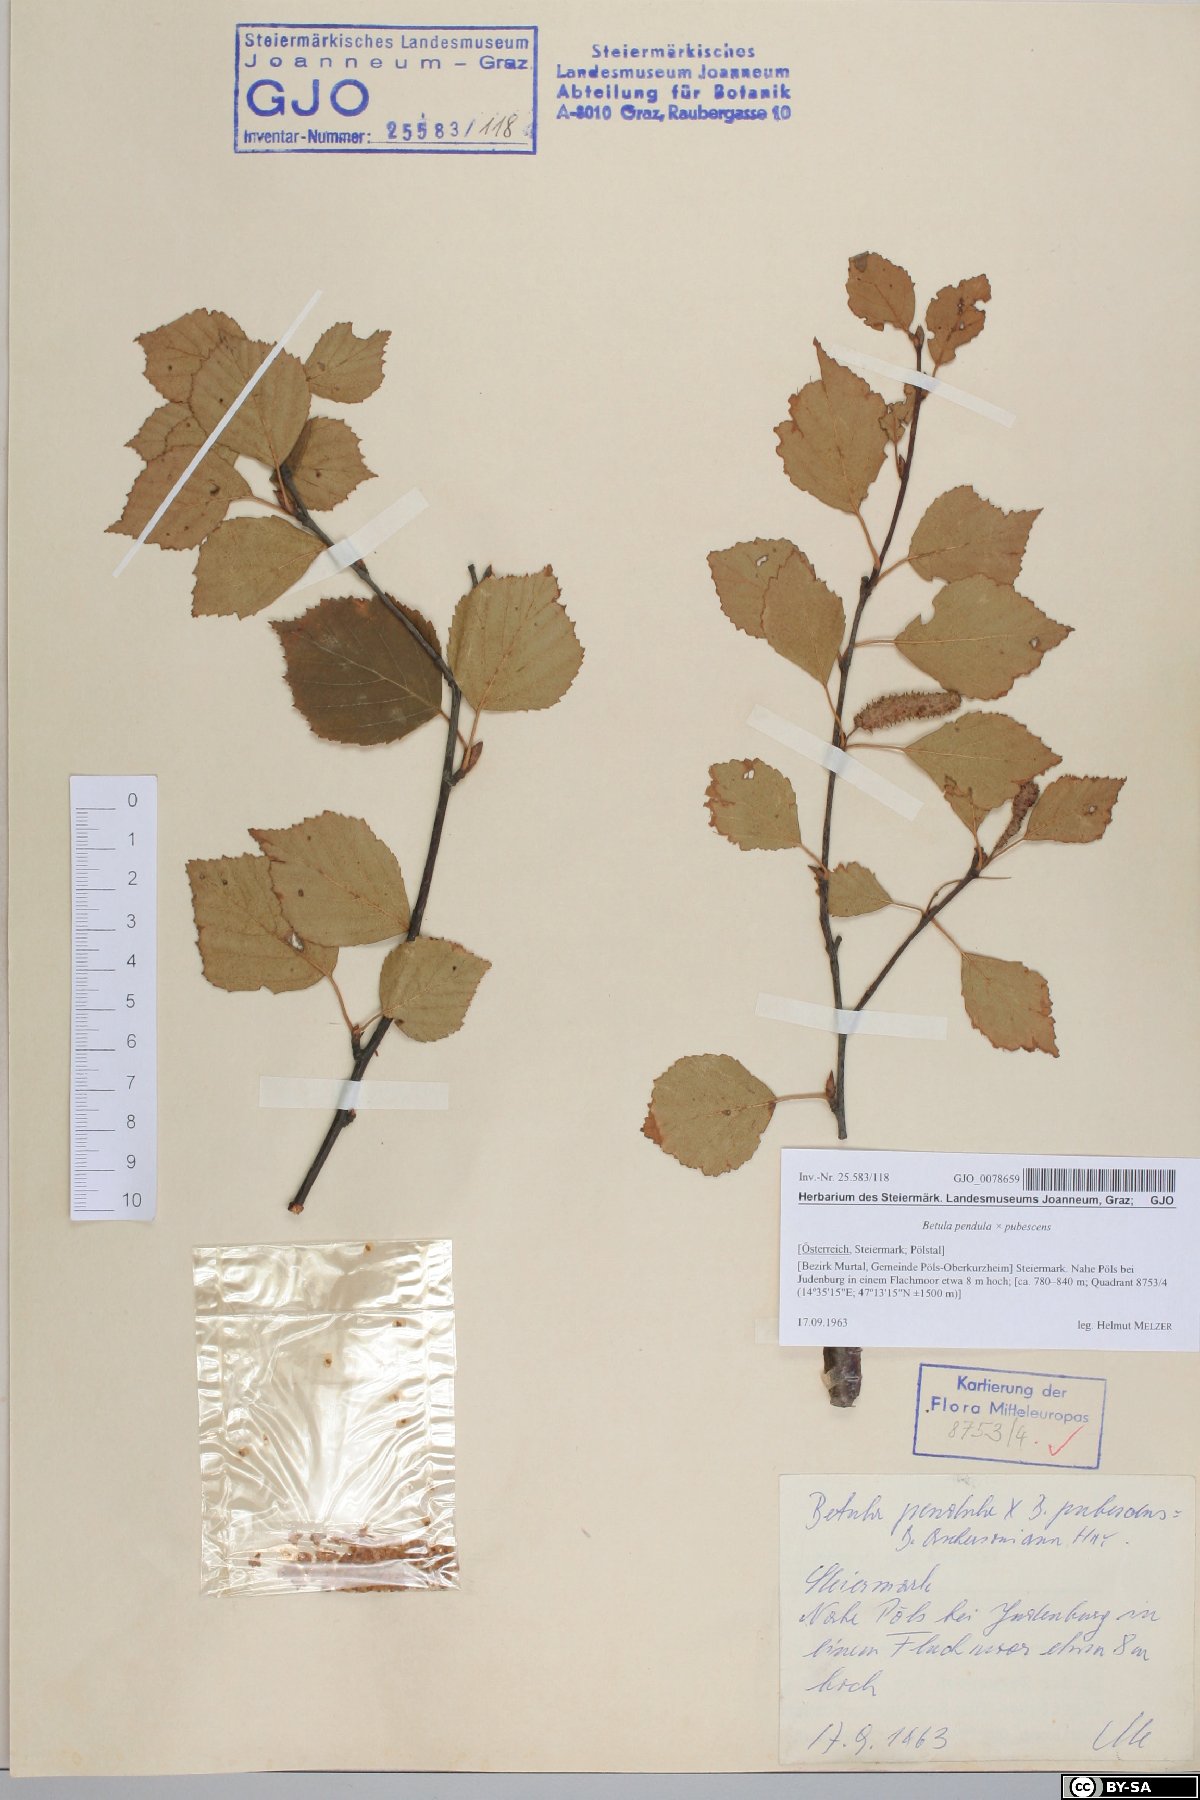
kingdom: Plantae
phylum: Tracheophyta
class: Magnoliopsida
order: Fagales
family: Betulaceae
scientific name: Betulaceae
